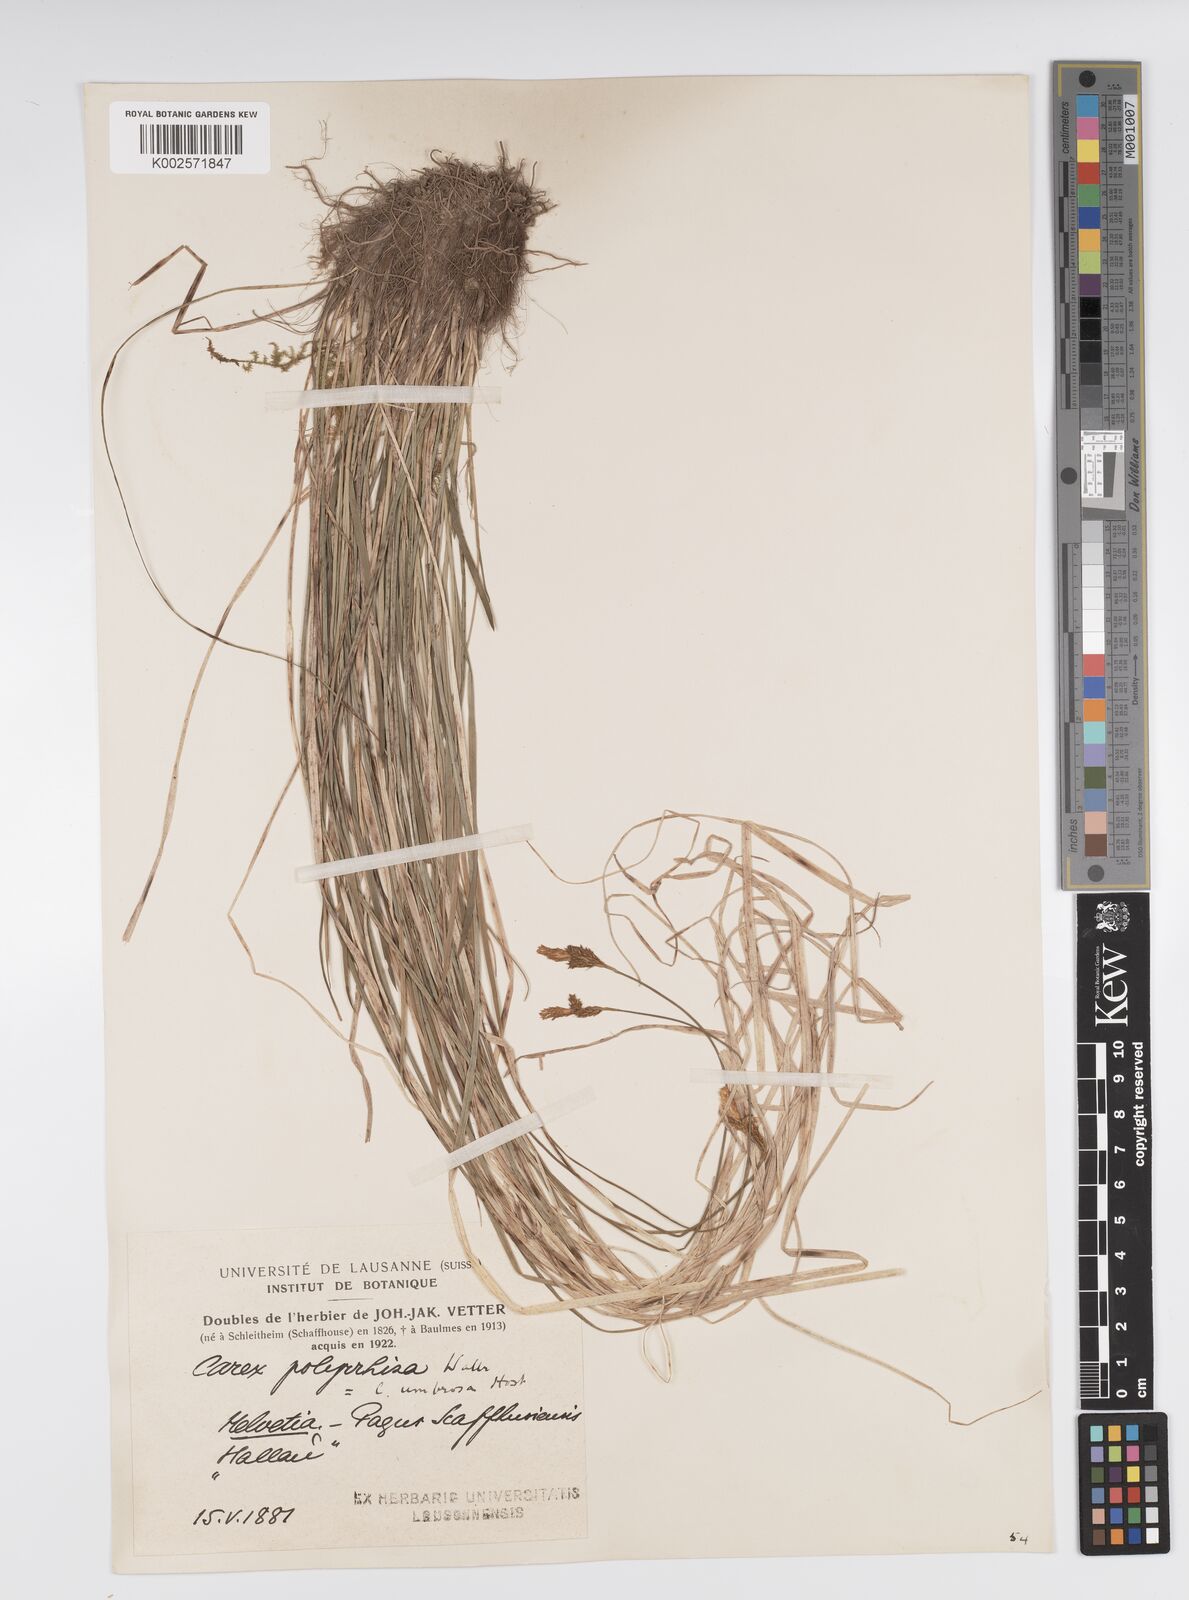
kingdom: Plantae
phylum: Tracheophyta
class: Liliopsida
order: Poales
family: Cyperaceae
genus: Carex
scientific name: Carex umbrosa
